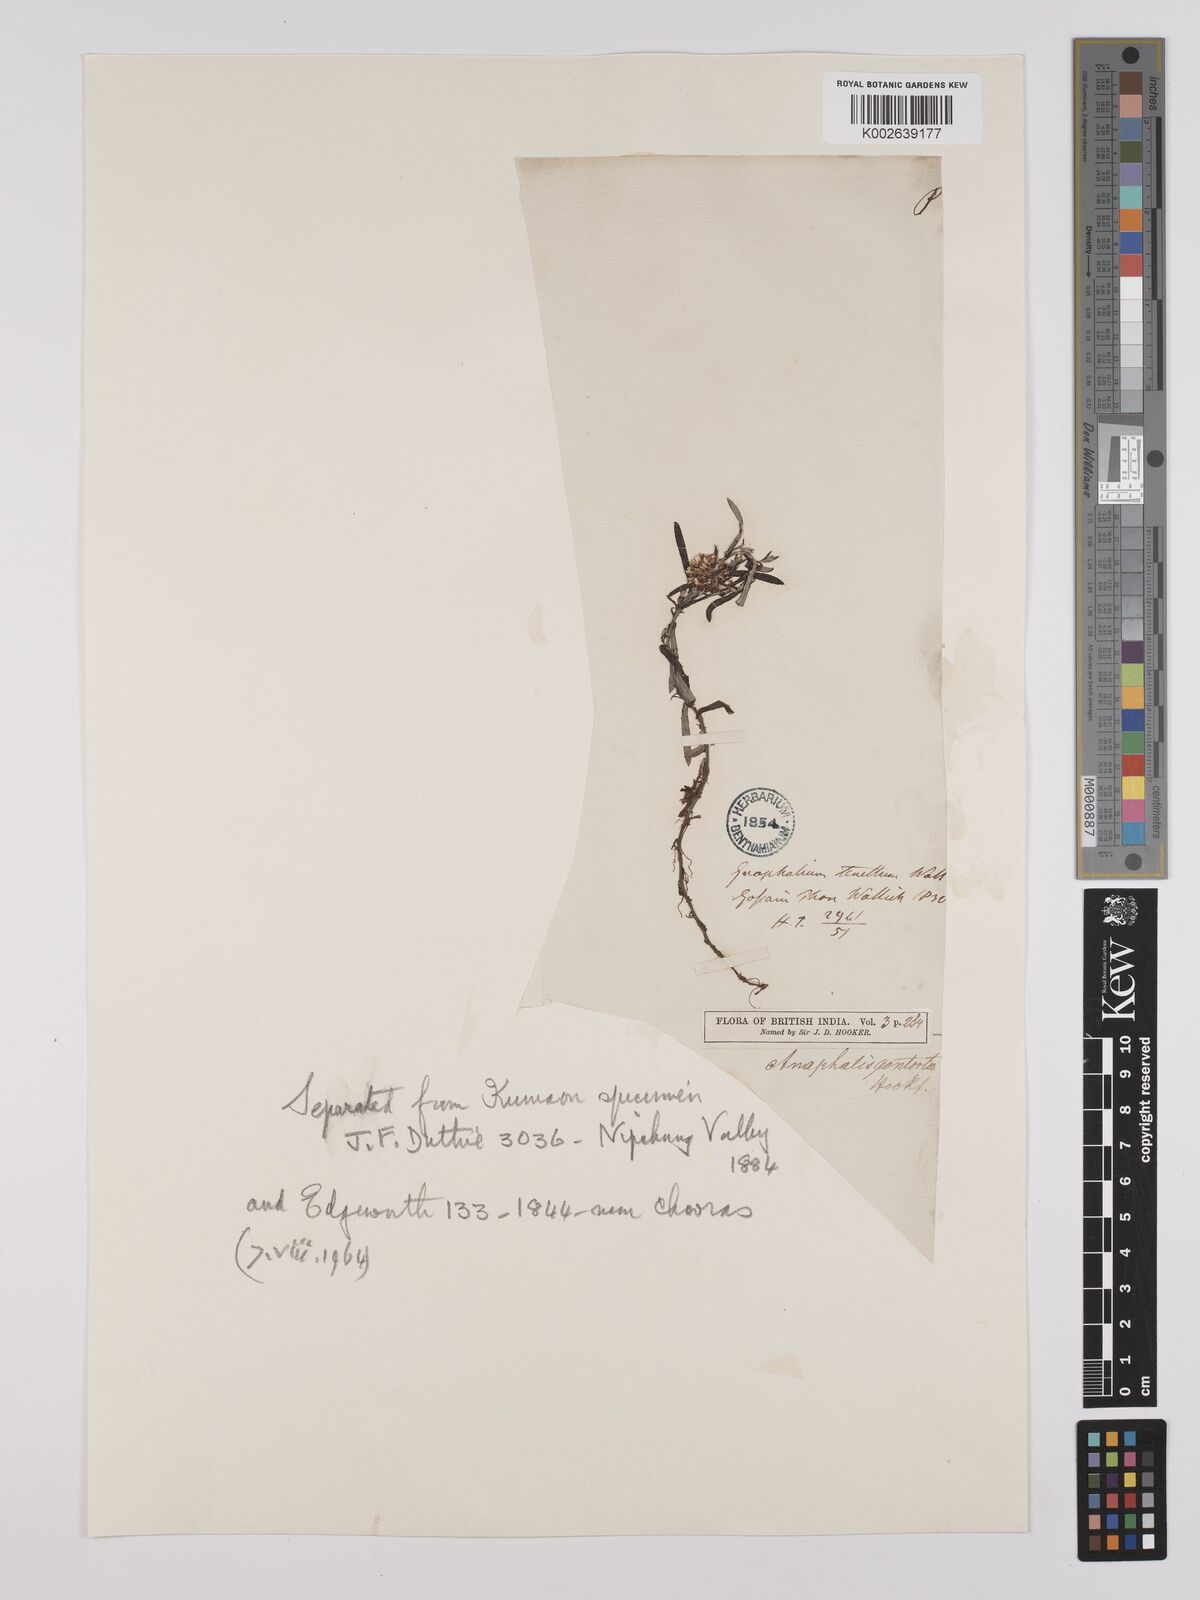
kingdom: Plantae
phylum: Tracheophyta
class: Magnoliopsida
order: Asterales
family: Asteraceae
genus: Anaphalis
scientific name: Anaphalis contorta
